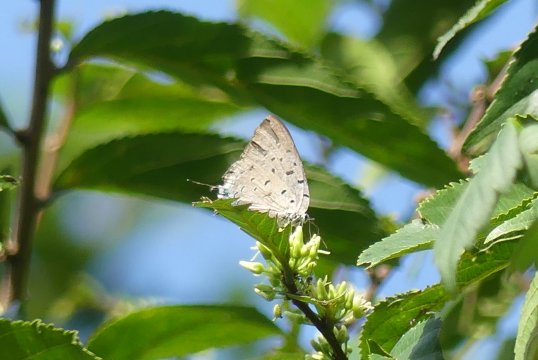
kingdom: Animalia
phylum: Arthropoda
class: Insecta
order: Lepidoptera
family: Lycaenidae
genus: Pseudolycaena
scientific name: Pseudolycaena marsyas
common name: Marsyas Hairstreak
